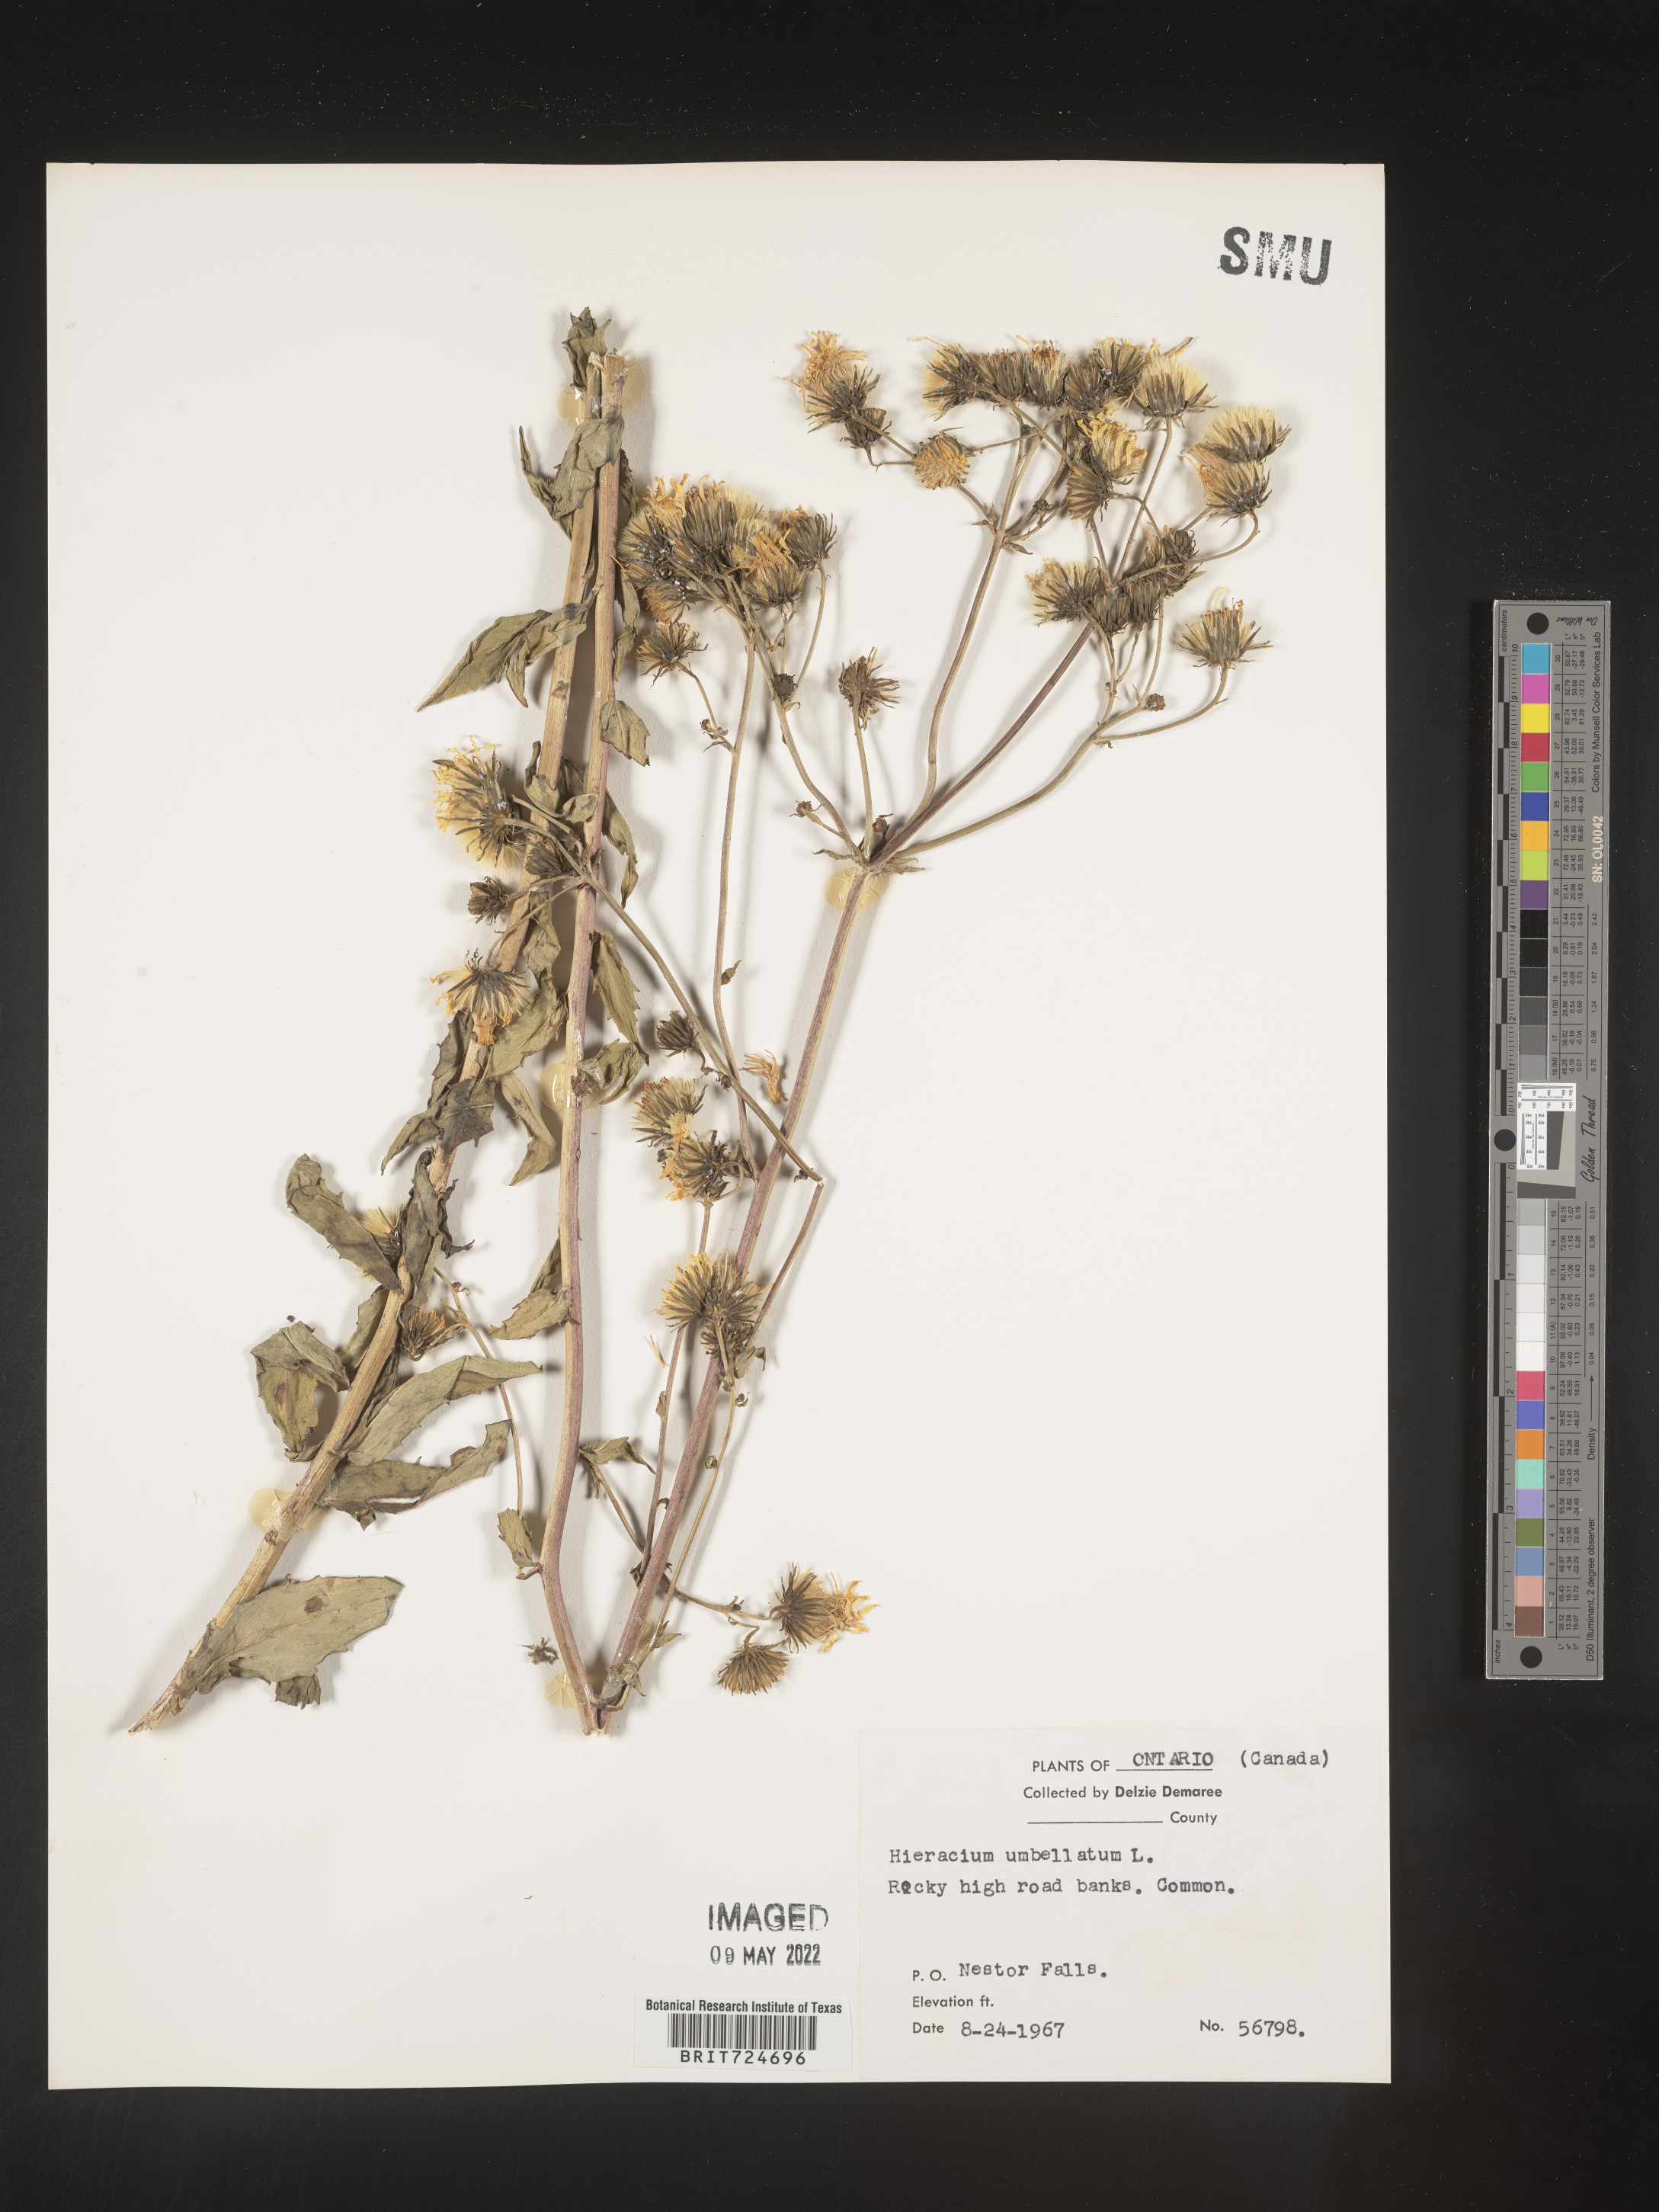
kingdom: Plantae
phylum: Tracheophyta
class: Magnoliopsida
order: Asterales
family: Asteraceae
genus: Hieracium
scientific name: Hieracium
